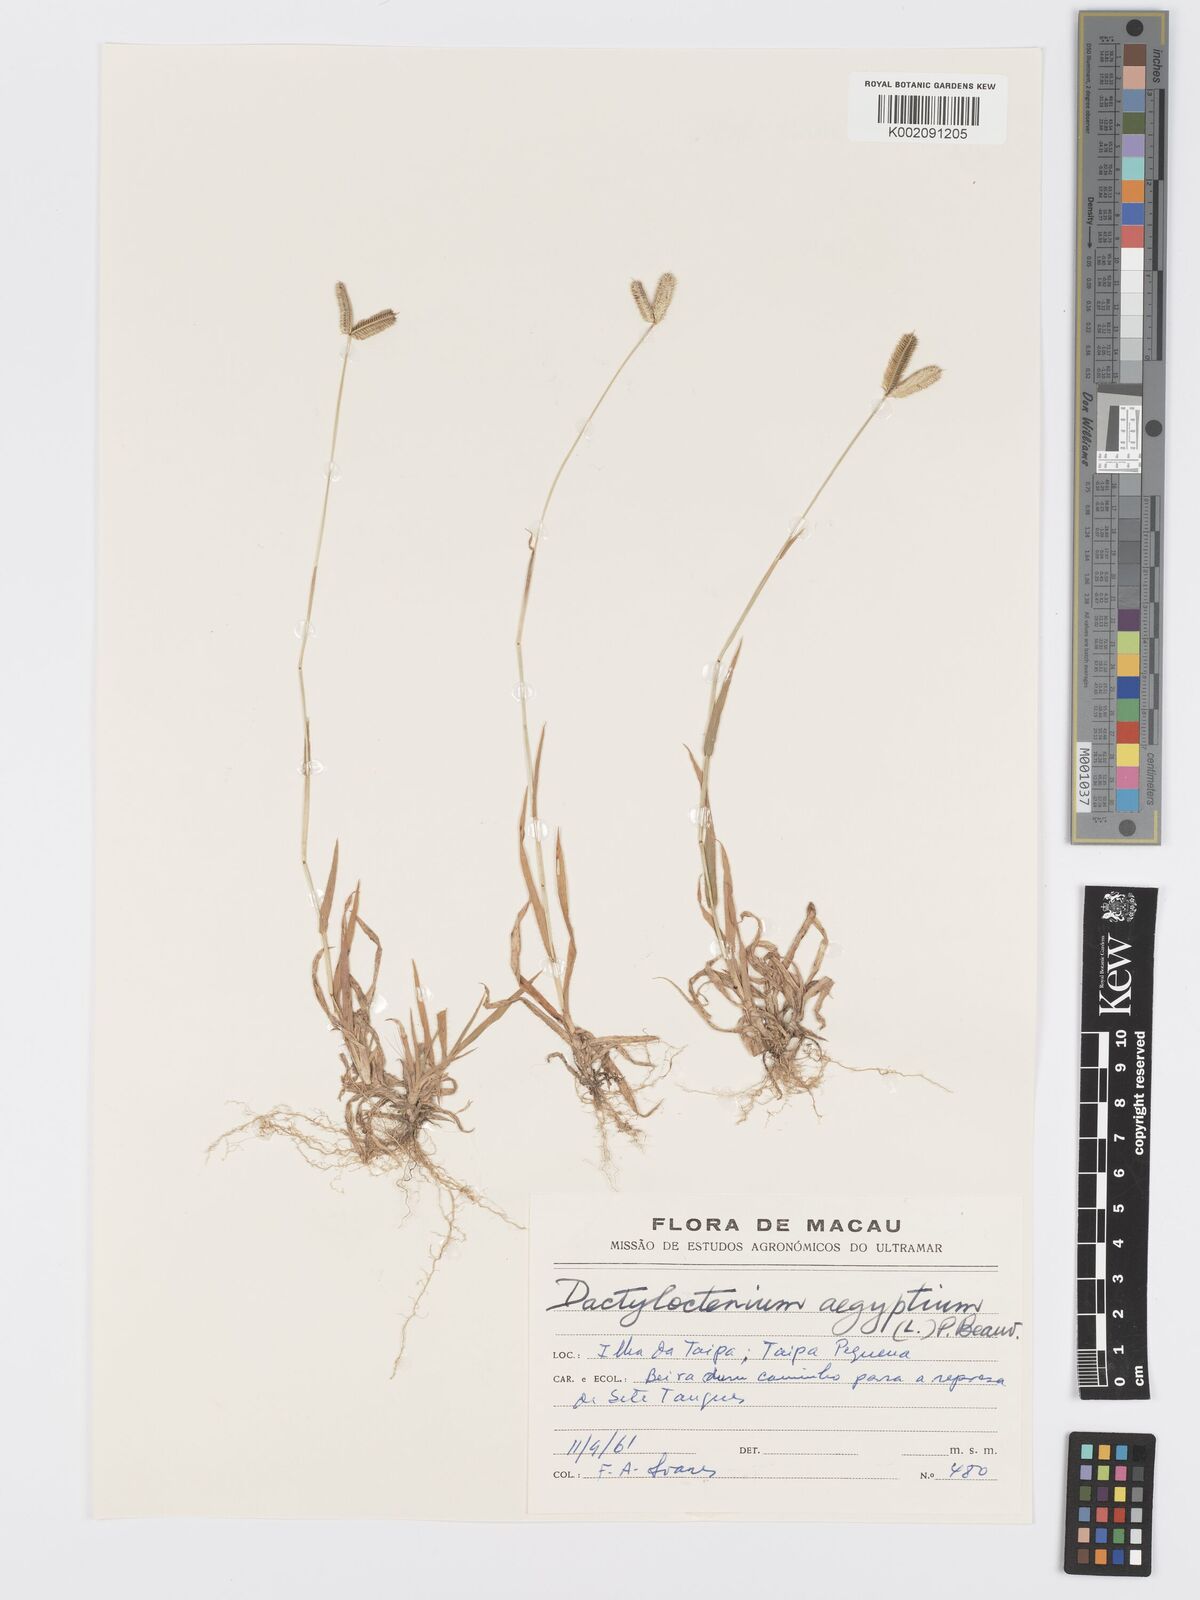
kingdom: Plantae
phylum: Tracheophyta
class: Liliopsida
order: Poales
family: Poaceae
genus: Dactyloctenium
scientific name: Dactyloctenium aegyptium
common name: Egyptian grass
